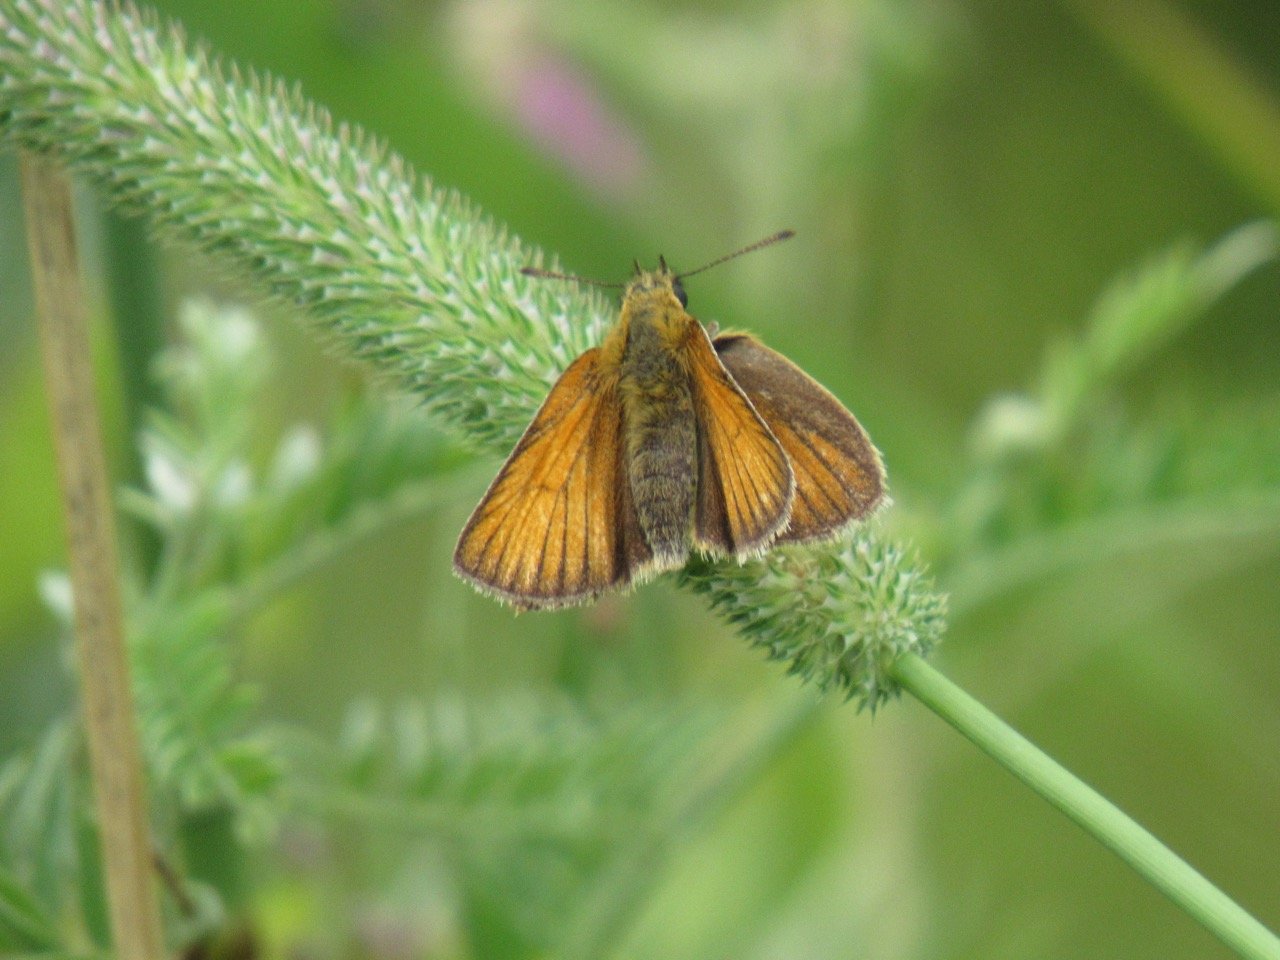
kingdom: Animalia
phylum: Arthropoda
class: Insecta
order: Lepidoptera
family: Hesperiidae
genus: Thymelicus
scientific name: Thymelicus lineola
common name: European Skipper
